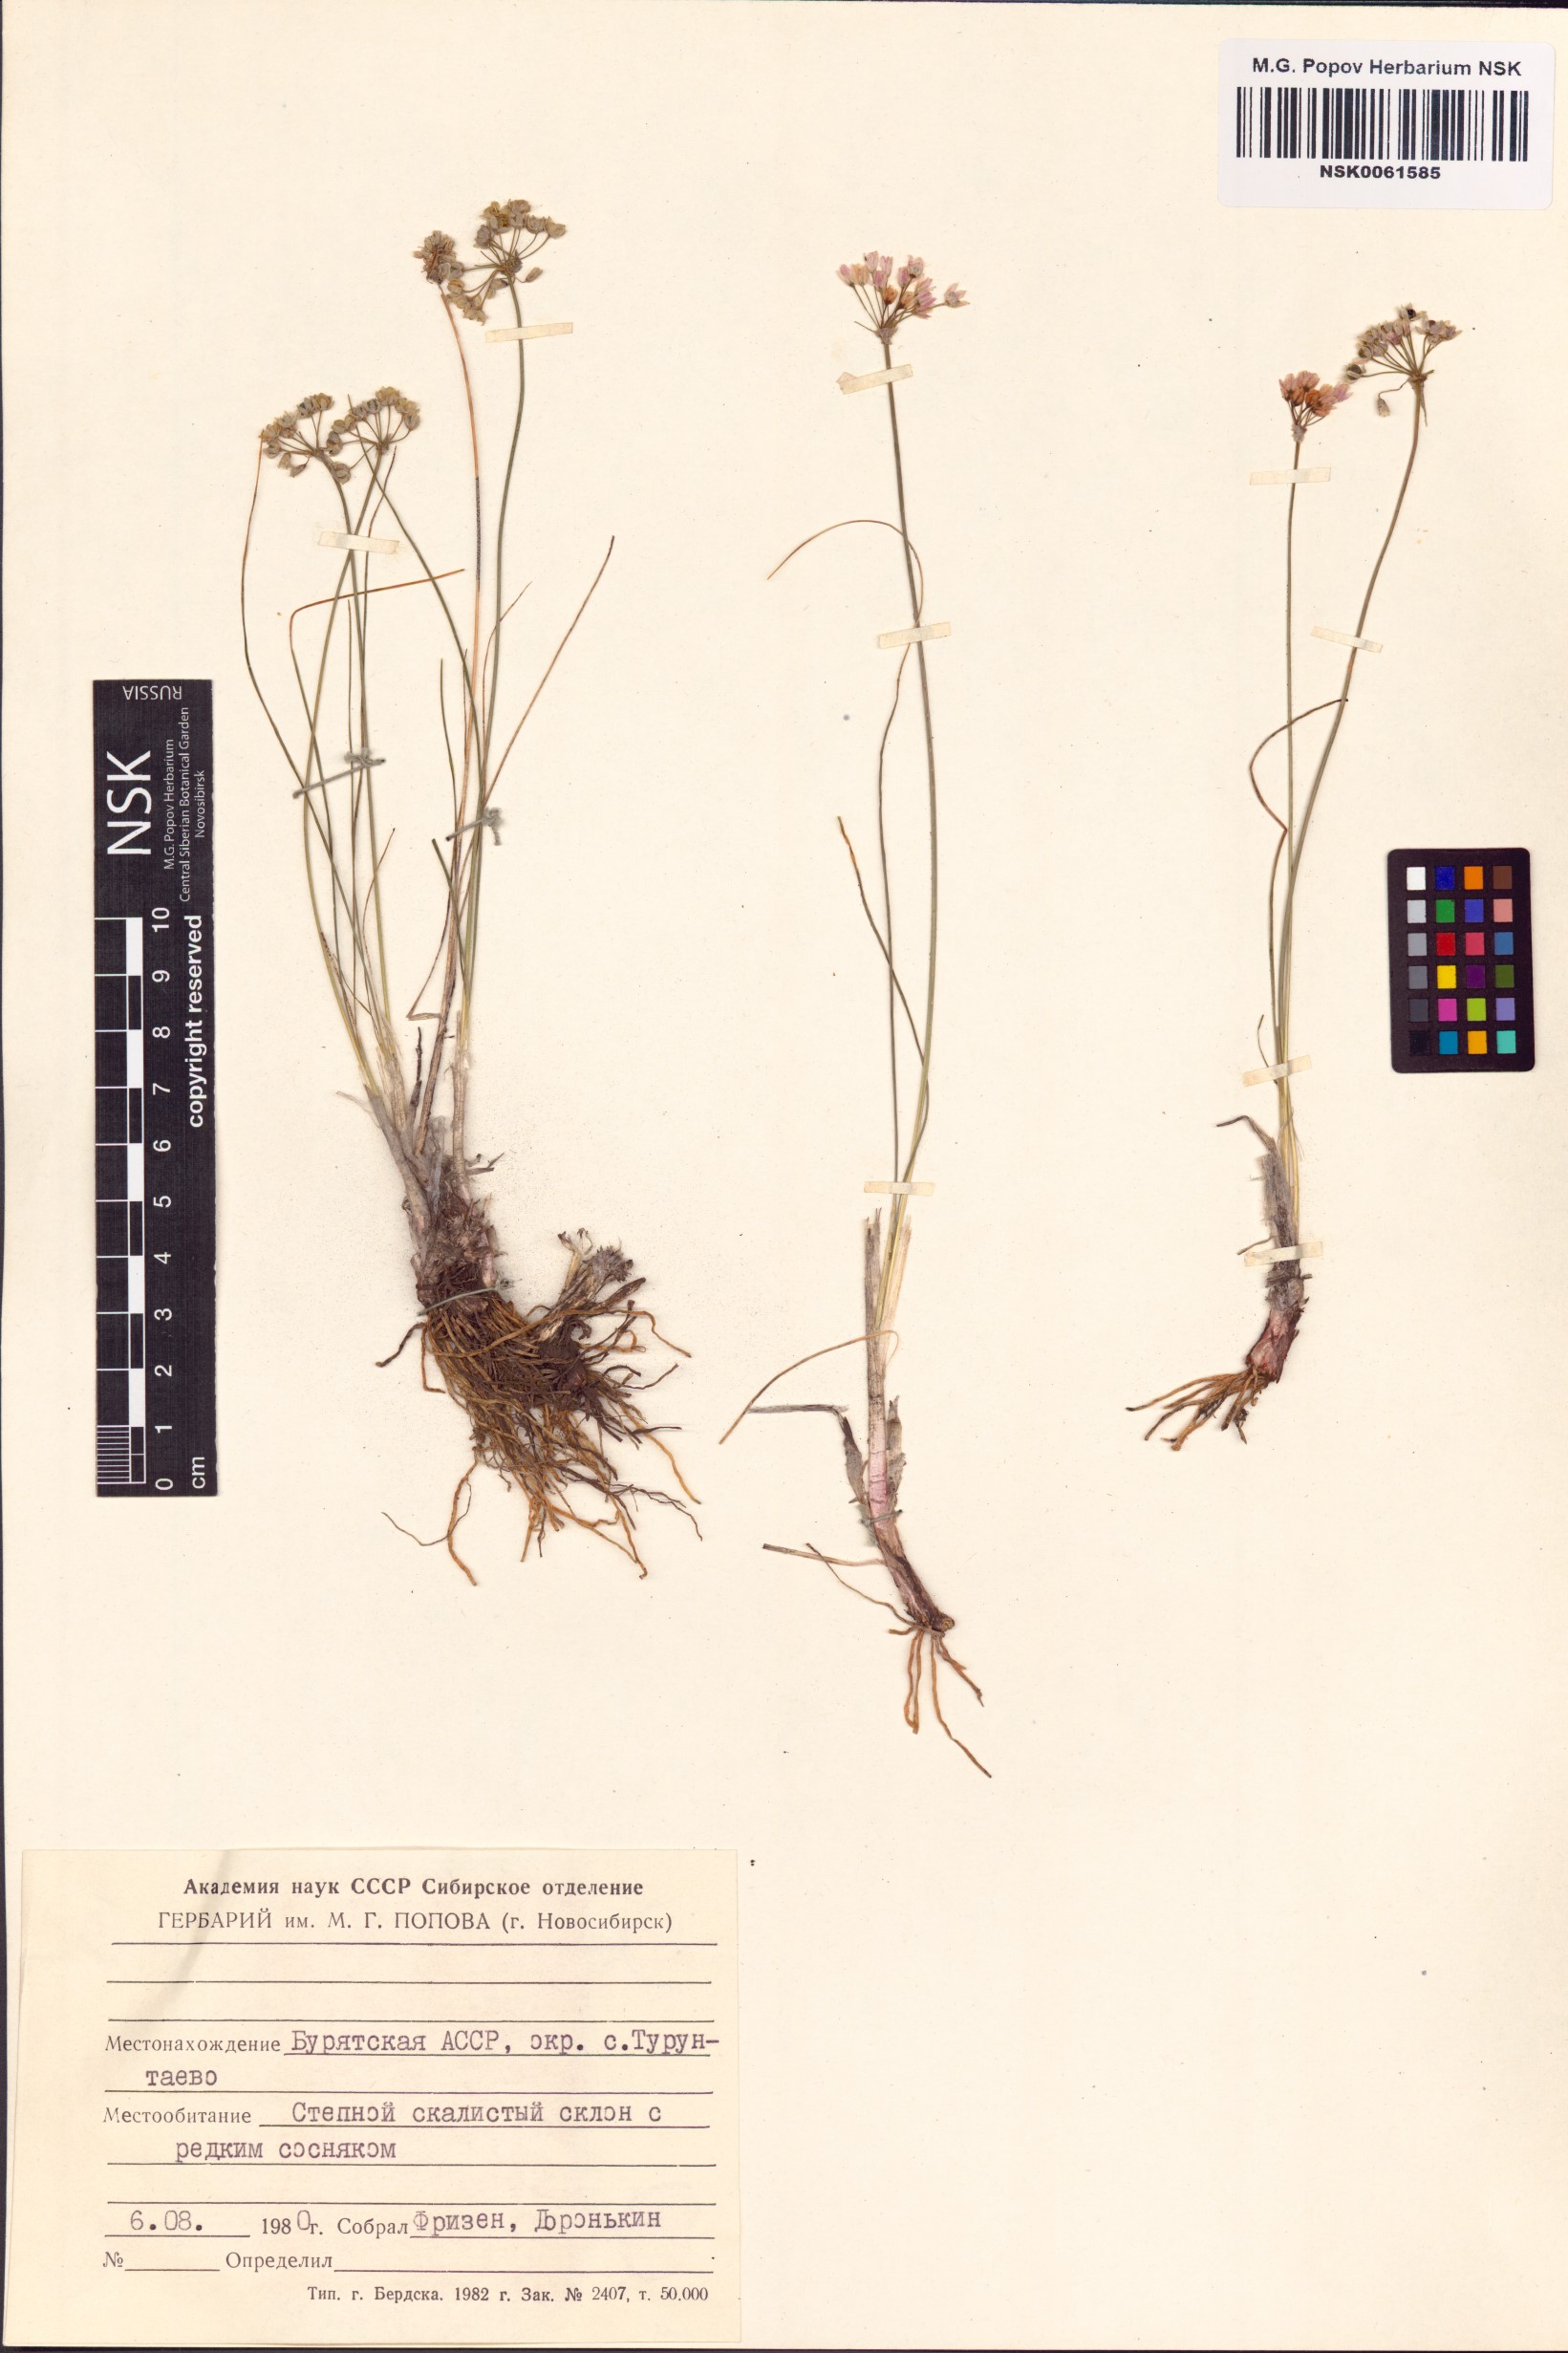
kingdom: Plantae
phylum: Tracheophyta
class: Liliopsida
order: Asparagales
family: Amaryllidaceae
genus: Allium
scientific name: Allium
